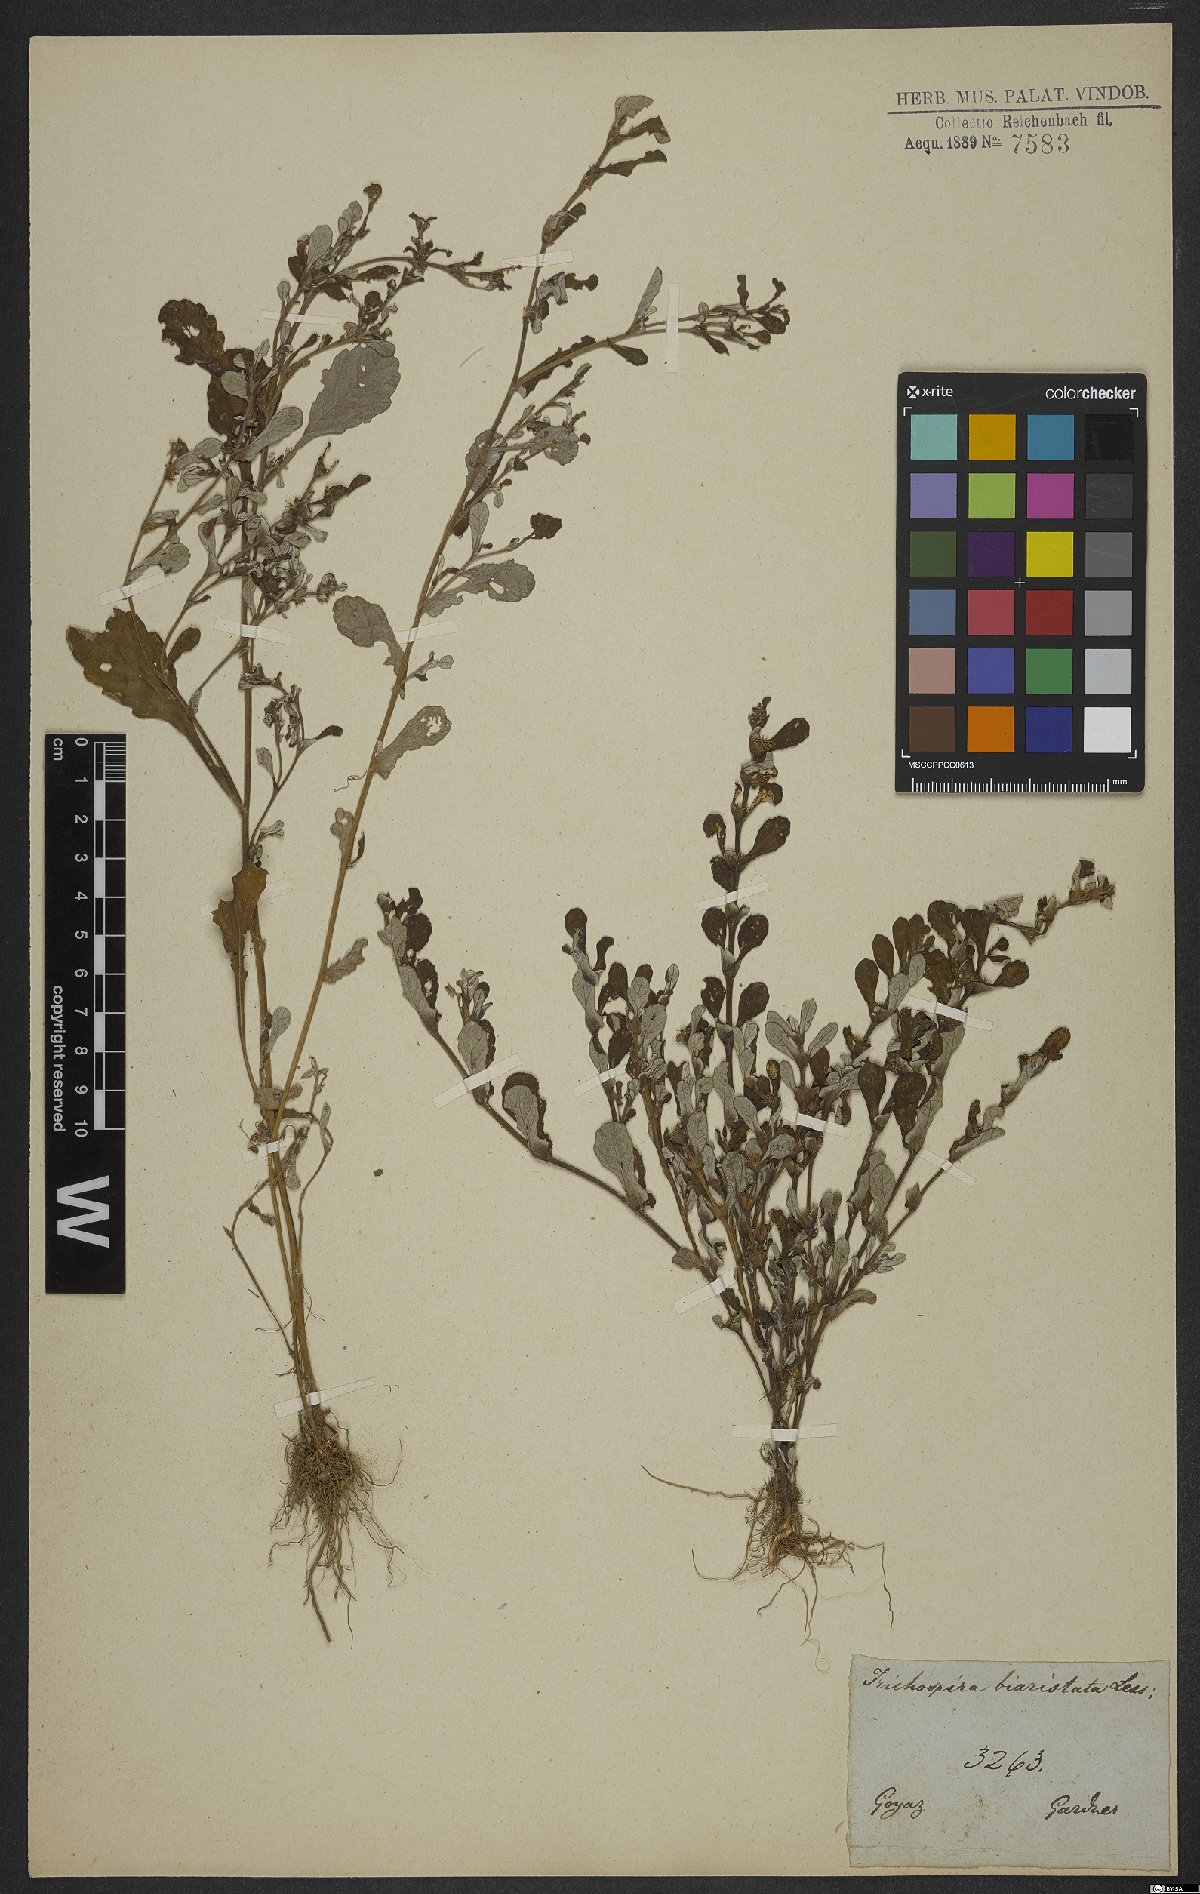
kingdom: Chromista
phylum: Ciliophora
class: Kinetofragminophora
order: Trichostomatida
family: Trichospiridae
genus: Trichospira
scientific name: Trichospira verticillata
